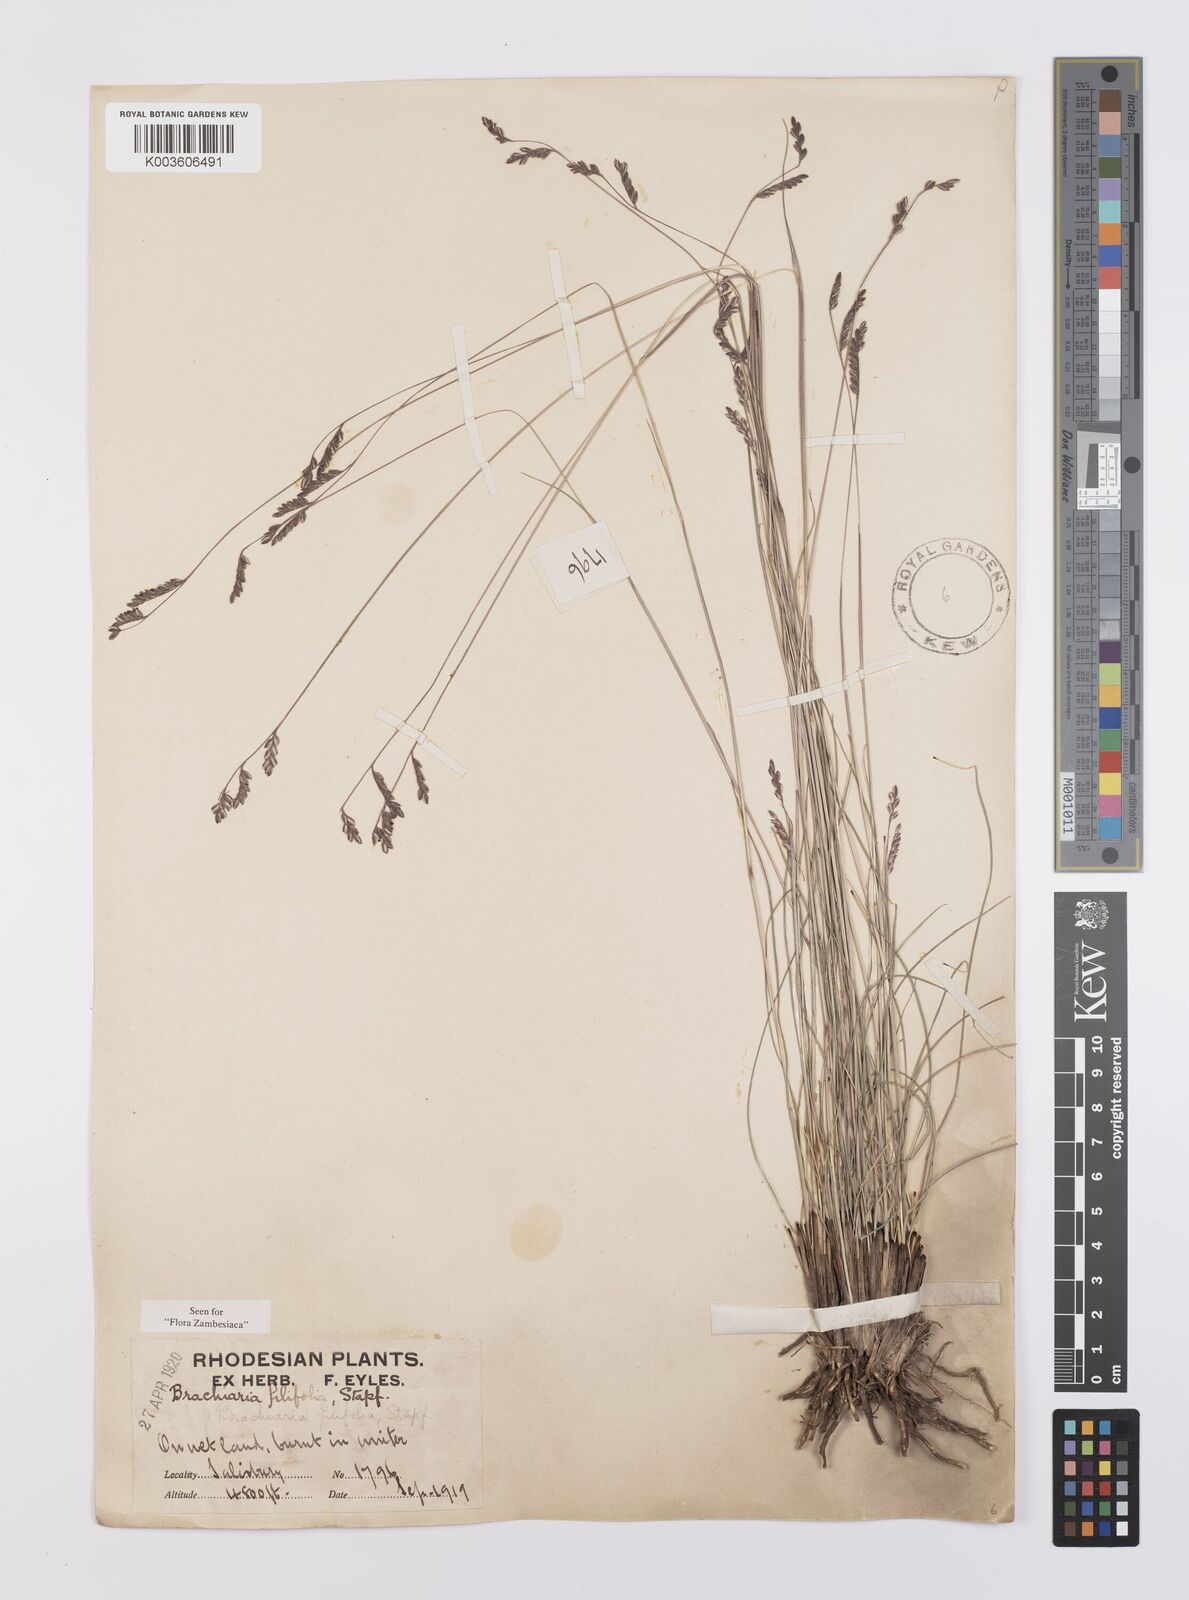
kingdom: Plantae
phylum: Tracheophyta
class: Liliopsida
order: Poales
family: Poaceae
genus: Urochloa
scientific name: Urochloa subulifolia
